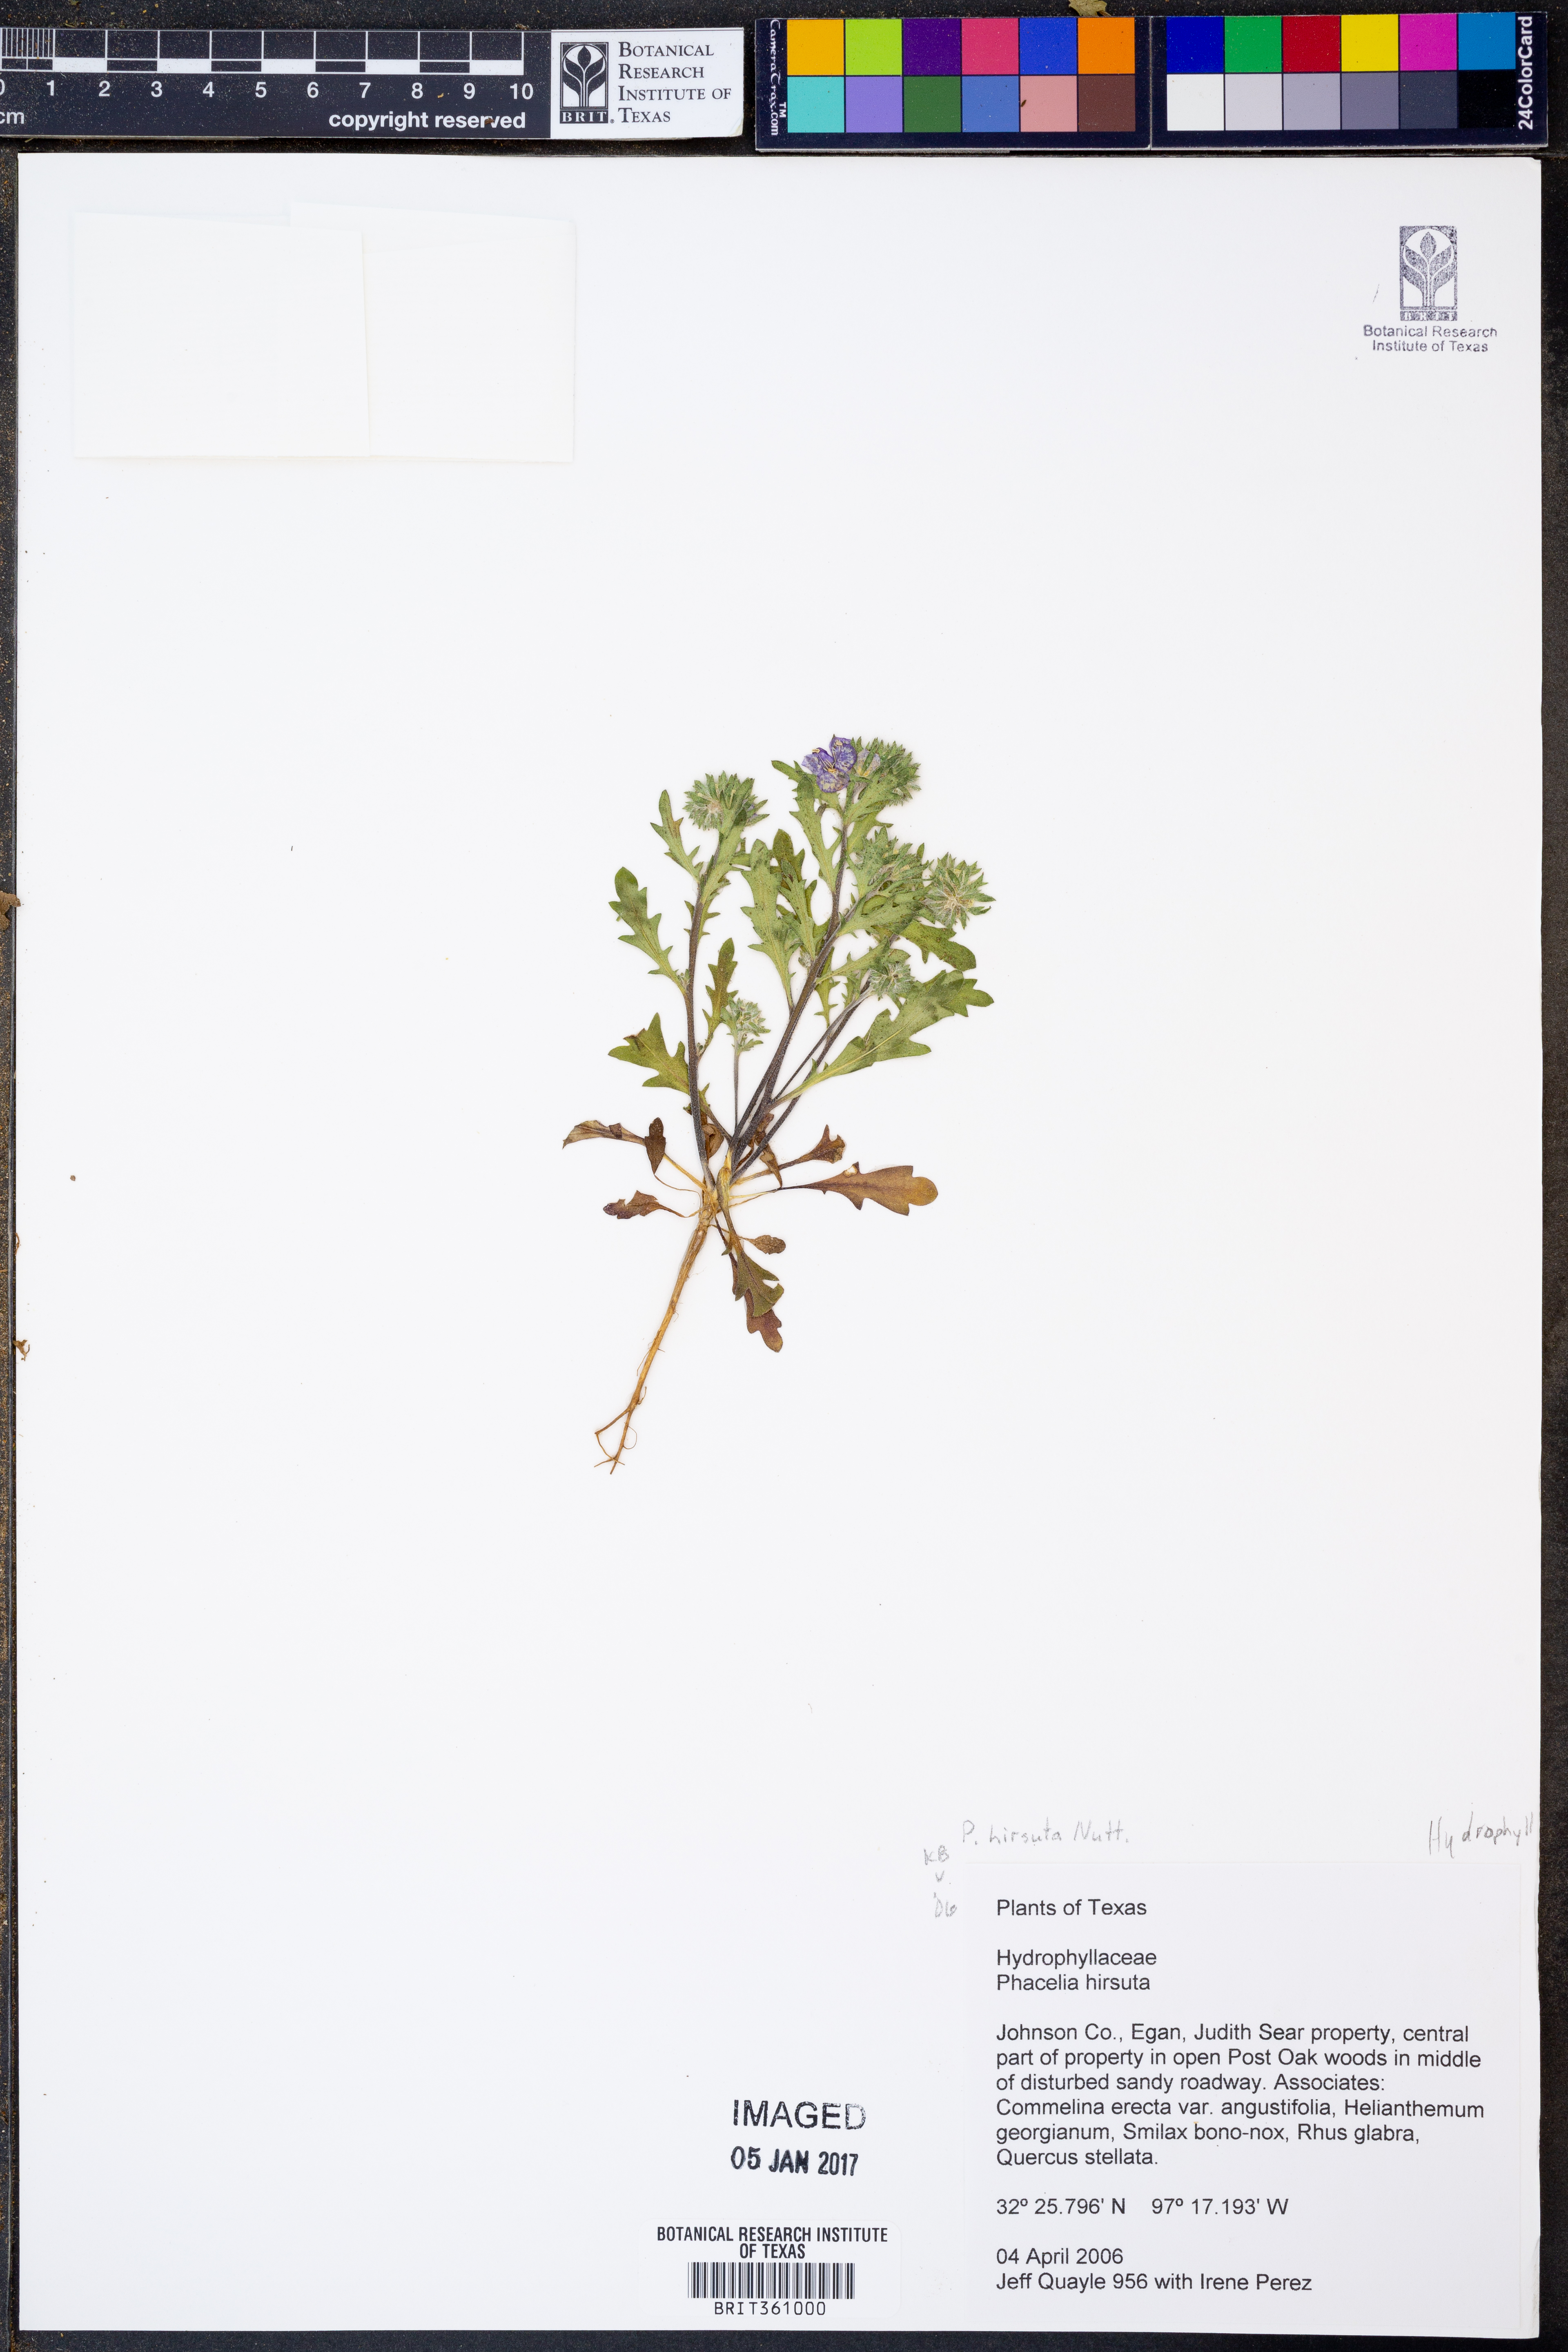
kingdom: Plantae
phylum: Tracheophyta
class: Magnoliopsida
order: Boraginales
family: Hydrophyllaceae
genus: Phacelia
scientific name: Phacelia hirsuta
